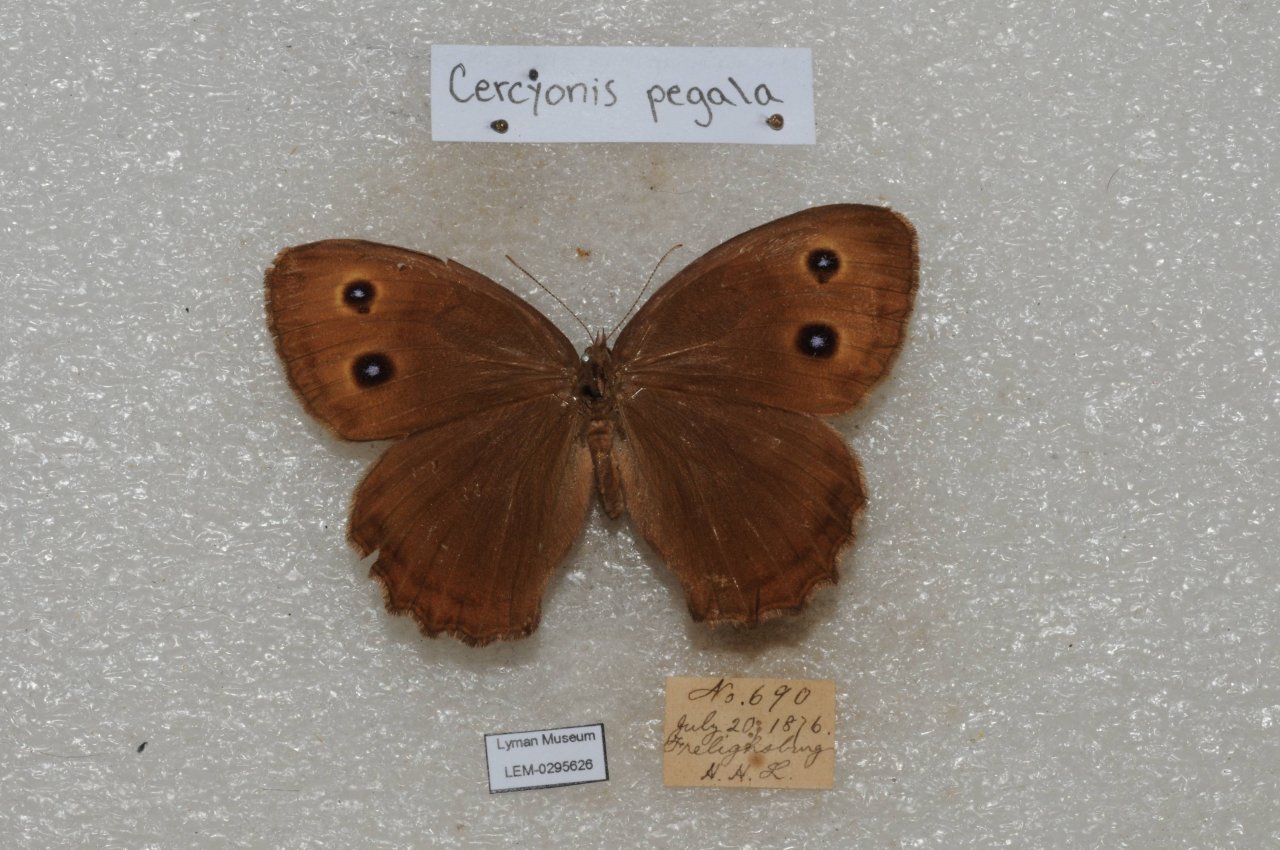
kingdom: Animalia
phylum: Arthropoda
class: Insecta
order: Lepidoptera
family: Nymphalidae
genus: Cercyonis
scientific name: Cercyonis pegala
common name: Common Wood-Nymph
